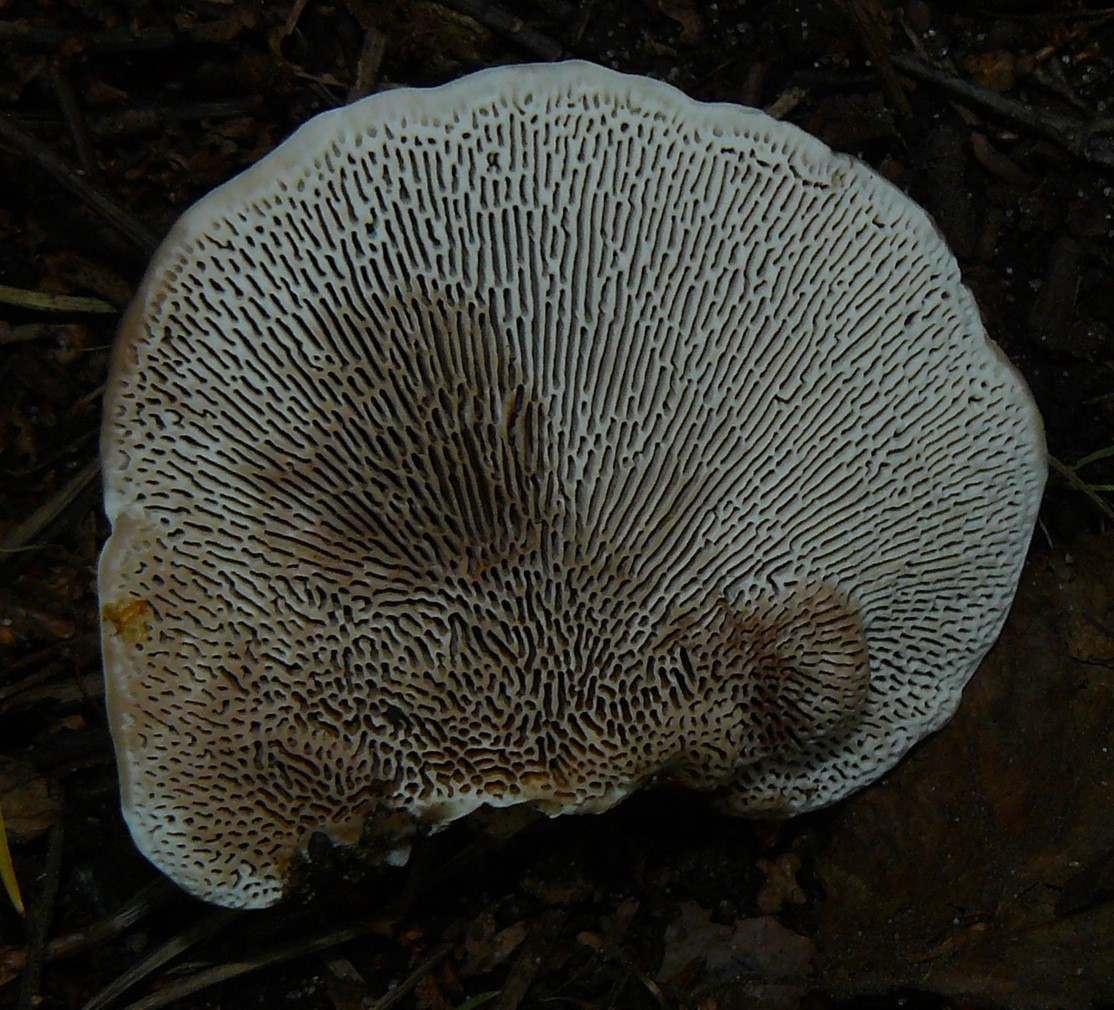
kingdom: Fungi
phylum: Basidiomycota
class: Agaricomycetes
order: Polyporales
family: Polyporaceae
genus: Daedaleopsis
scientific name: Daedaleopsis confragosa
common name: rødmende læderporesvamp
